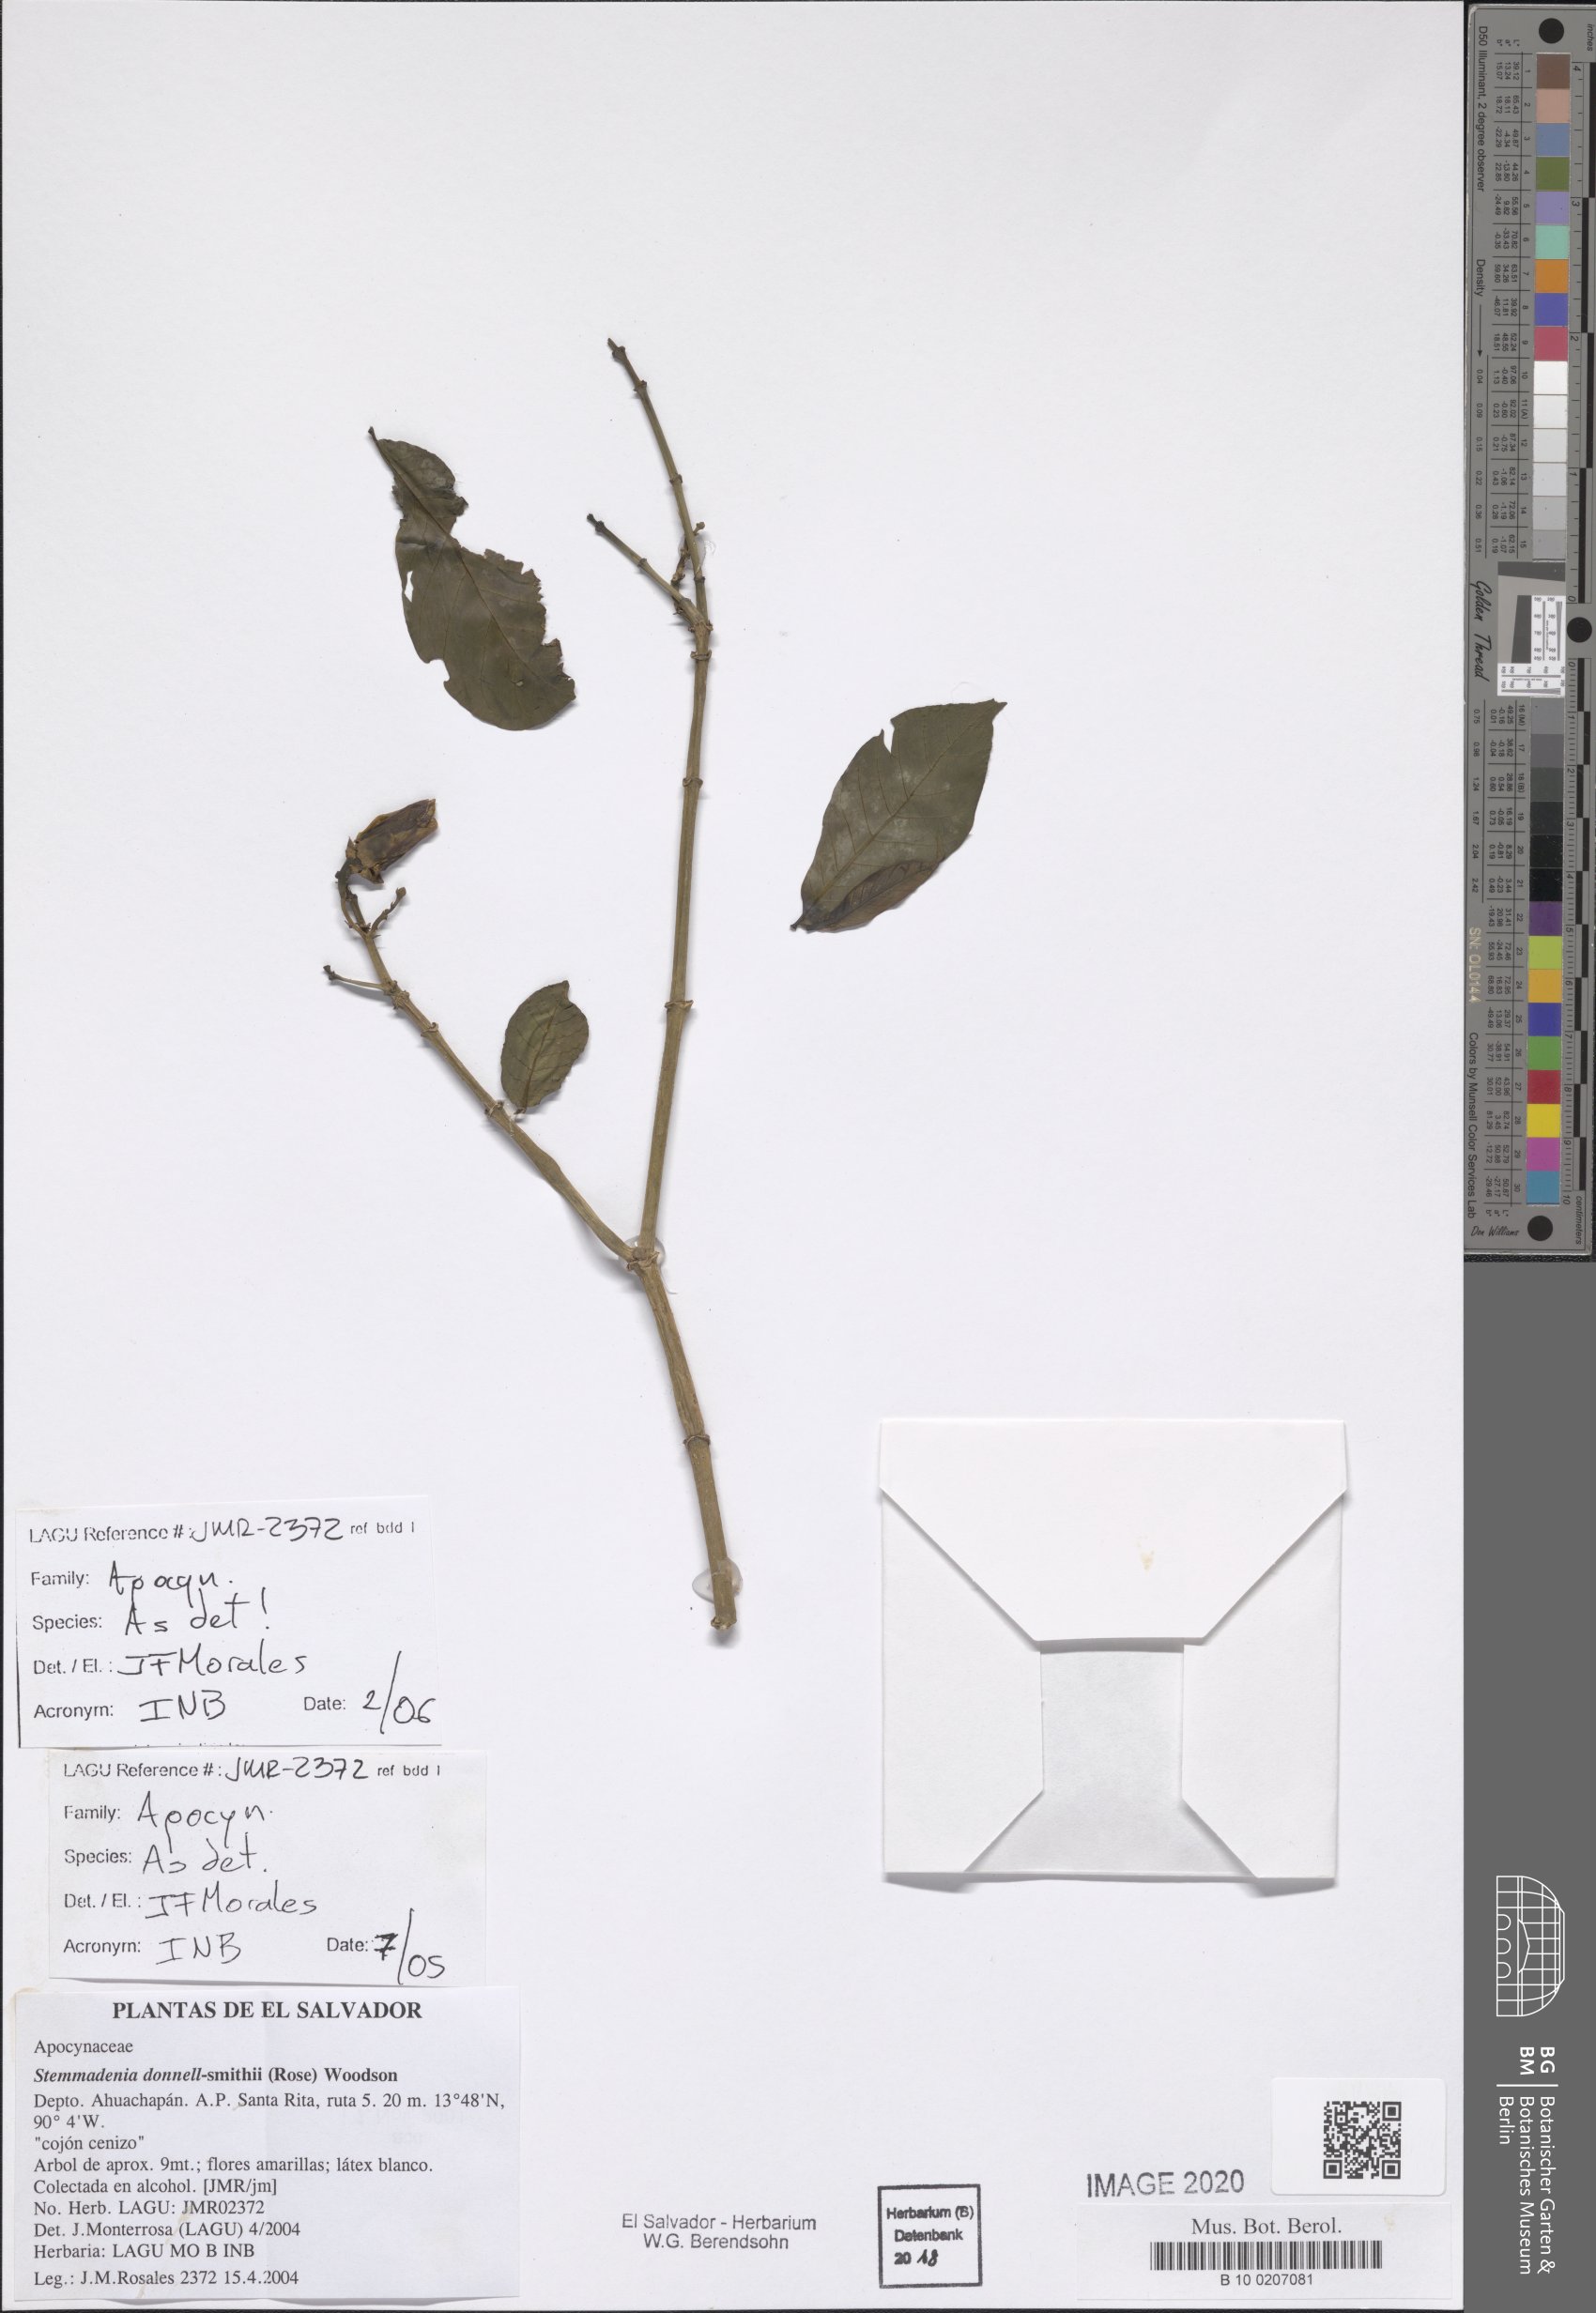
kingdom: Plantae
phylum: Tracheophyta
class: Magnoliopsida
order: Gentianales
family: Apocynaceae
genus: Tabernaemontana
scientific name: Tabernaemontana donnell-smithii
